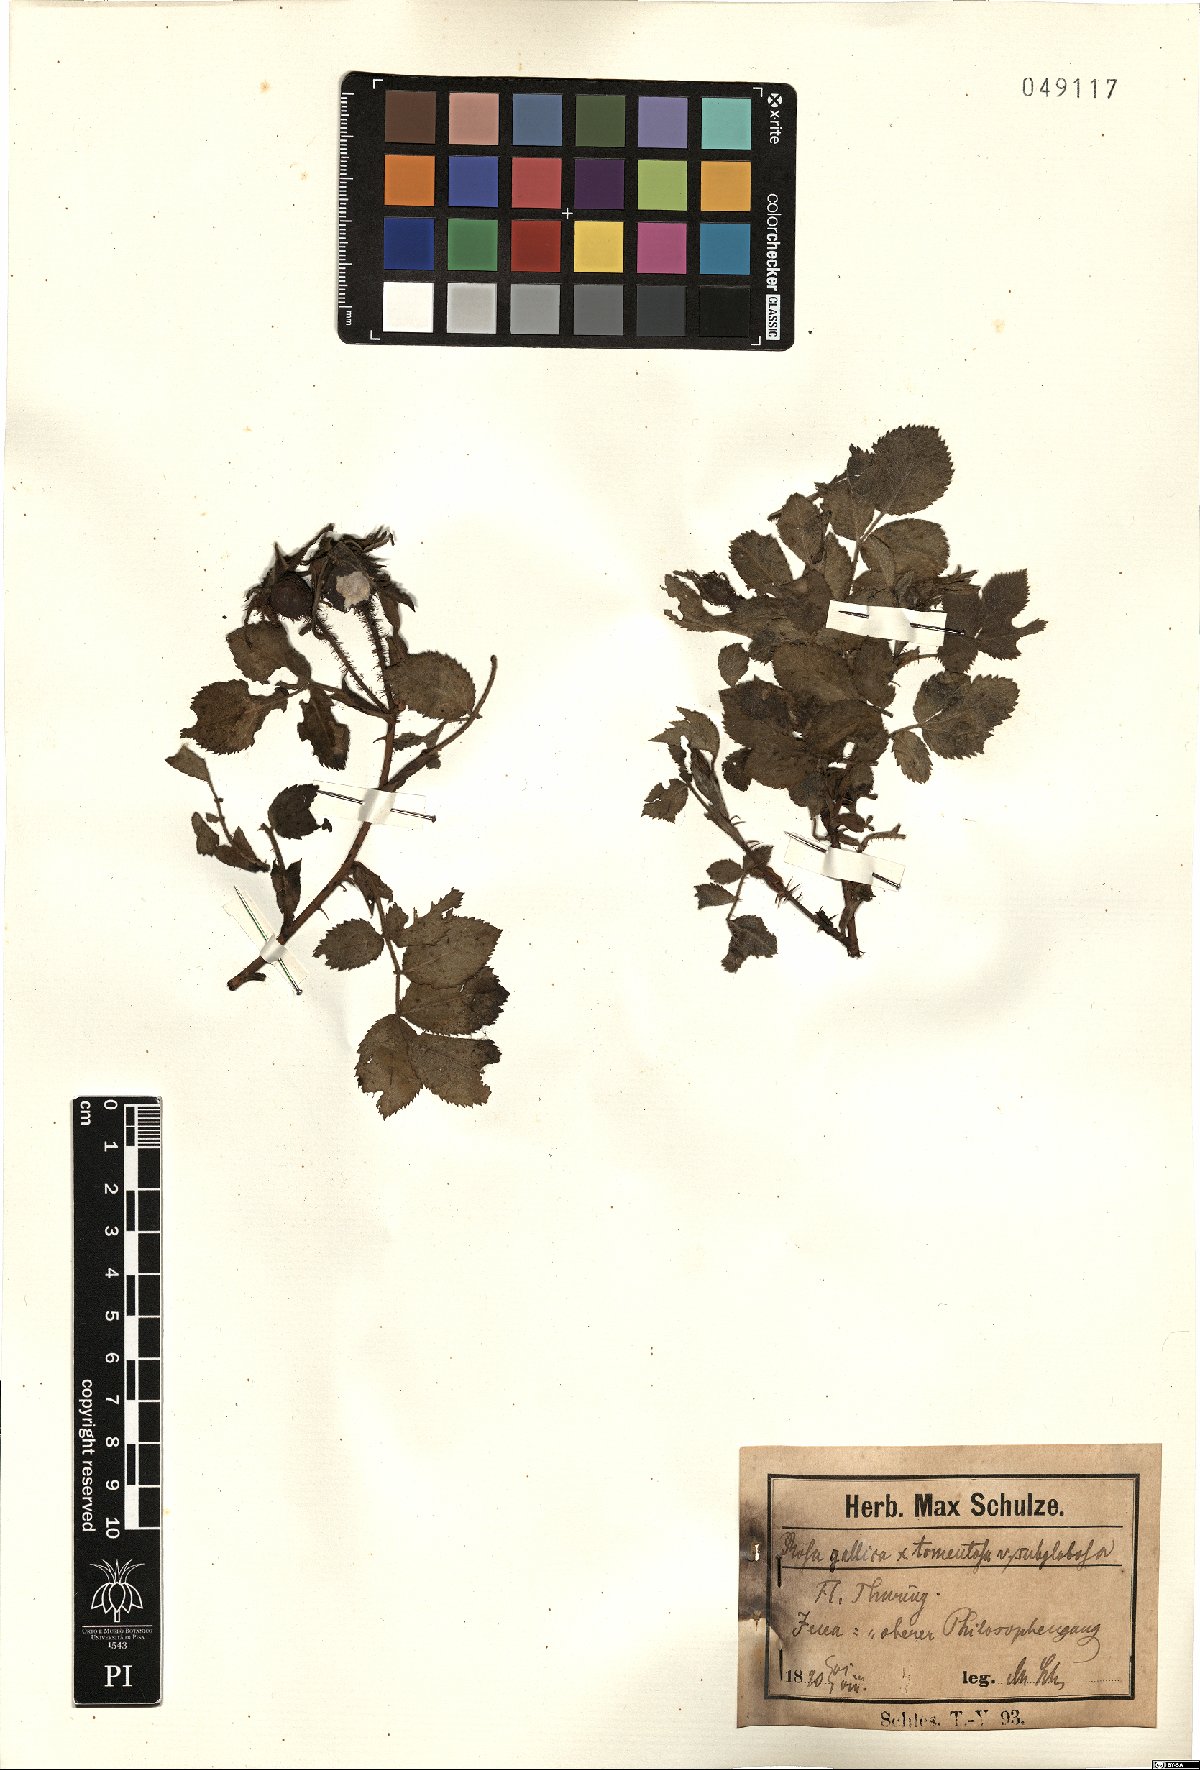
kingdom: Plantae
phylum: Tracheophyta
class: Magnoliopsida
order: Rosales
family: Rosaceae
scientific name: Rosaceae
